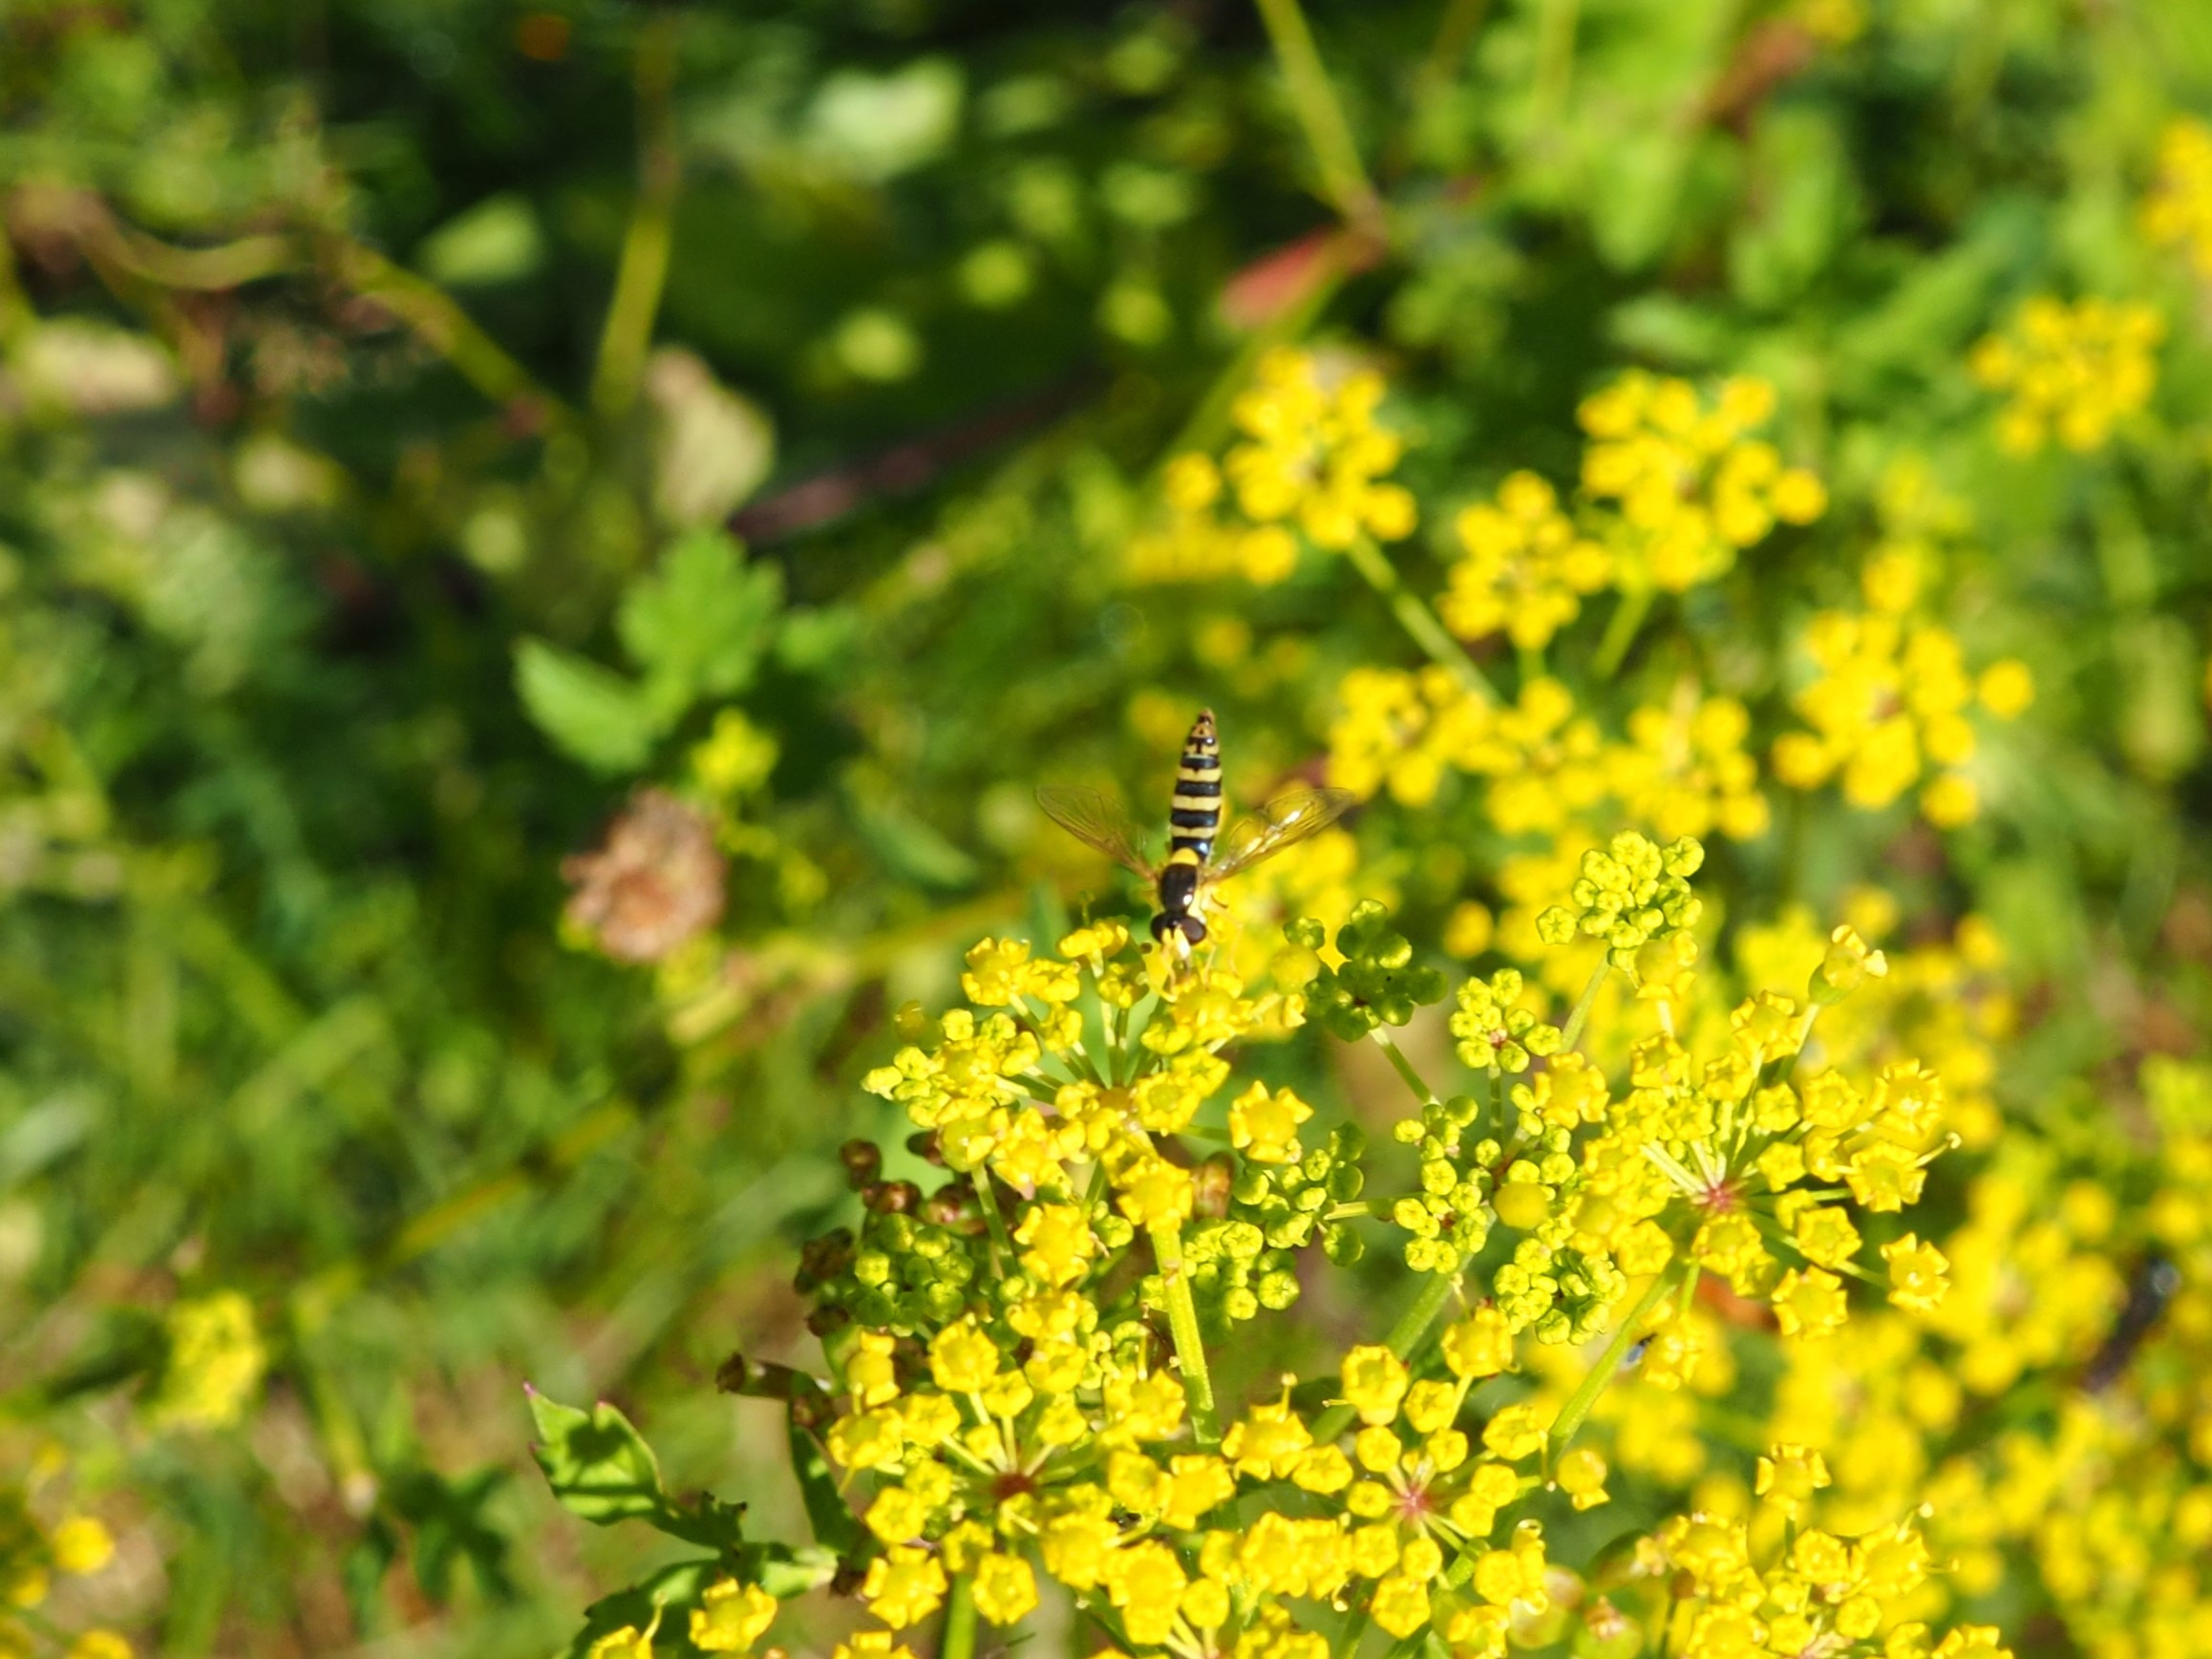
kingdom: Animalia
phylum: Arthropoda
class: Insecta
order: Diptera
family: Syrphidae
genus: Sphaerophoria
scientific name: Sphaerophoria
